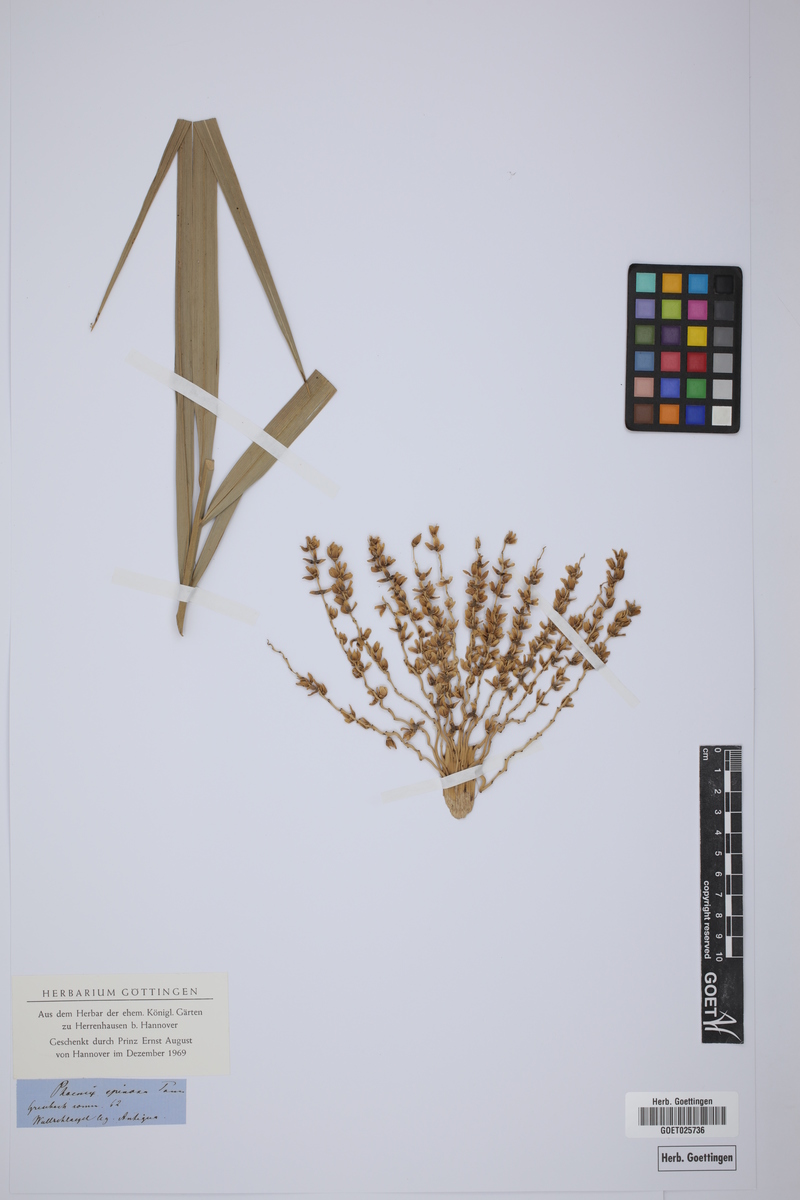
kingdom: Plantae
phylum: Tracheophyta
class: Liliopsida
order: Arecales
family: Arecaceae
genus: Phoenix
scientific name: Phoenix reclinata
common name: Senegal date palm
